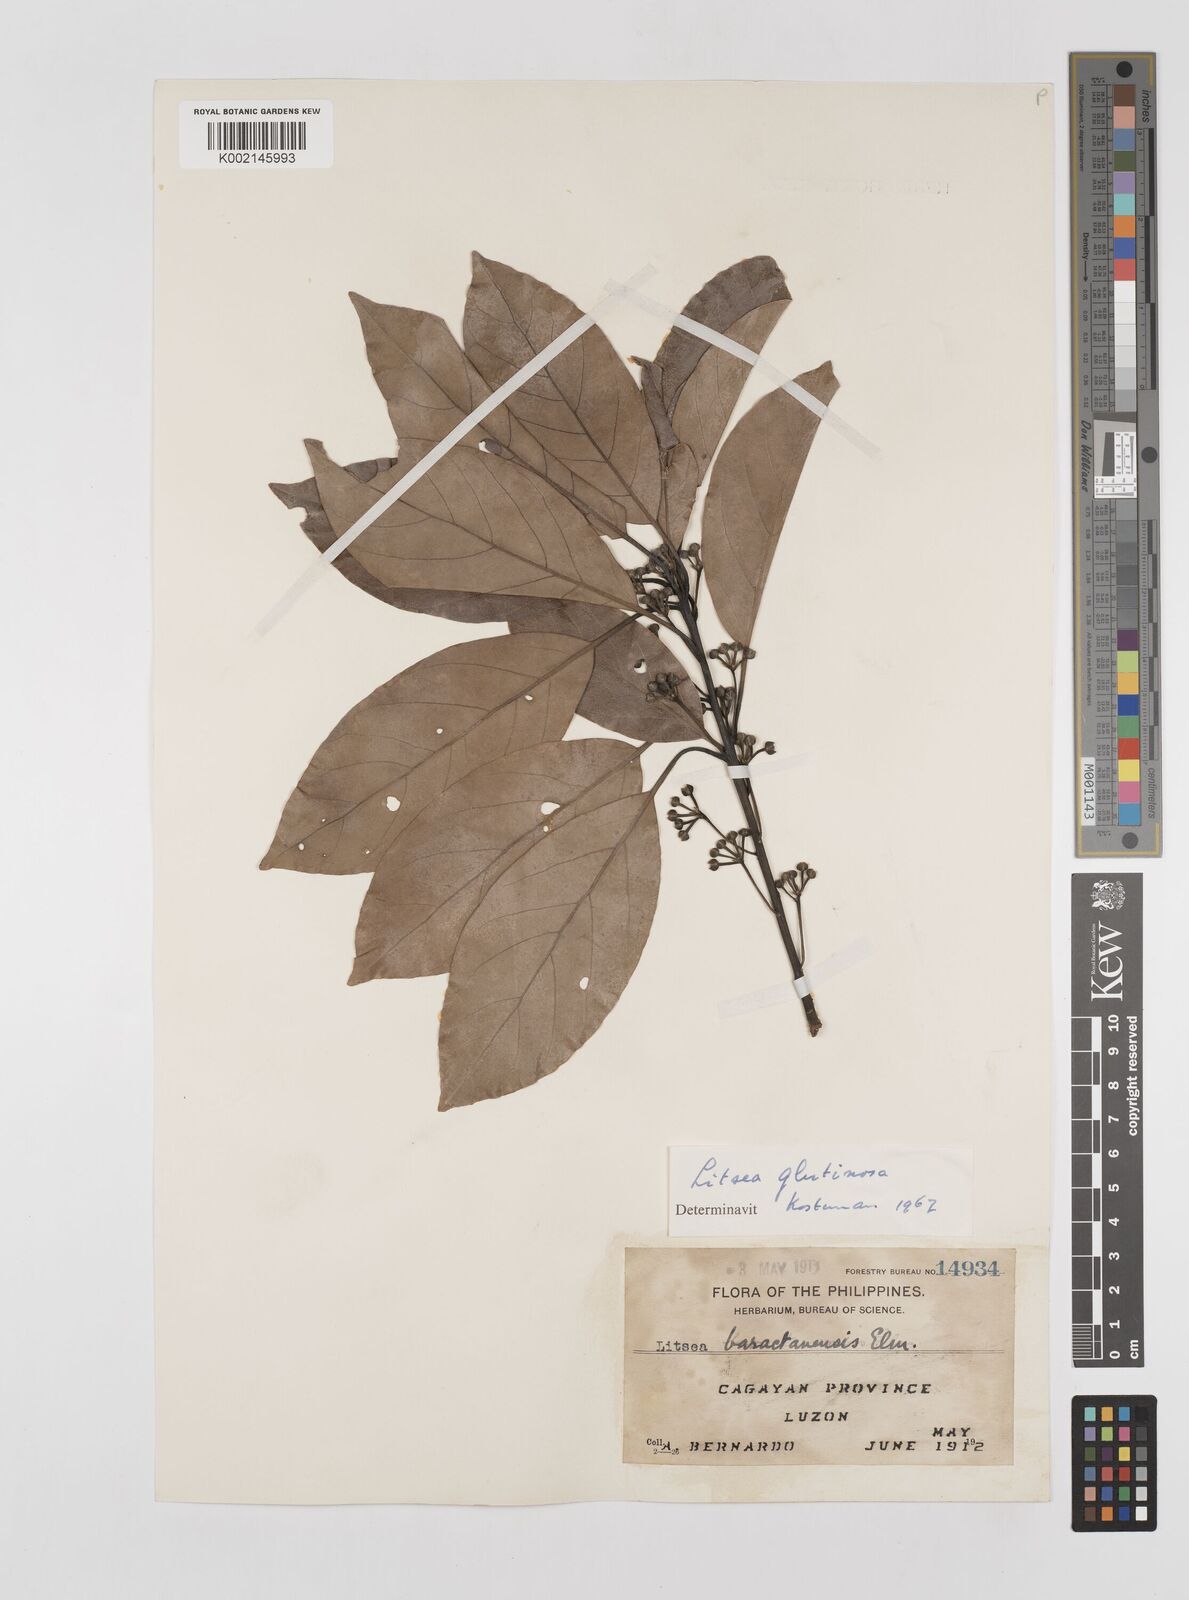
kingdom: Plantae
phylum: Tracheophyta
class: Magnoliopsida
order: Laurales
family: Lauraceae
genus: Litsea
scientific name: Litsea glutinosa
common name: Indian-laurel
